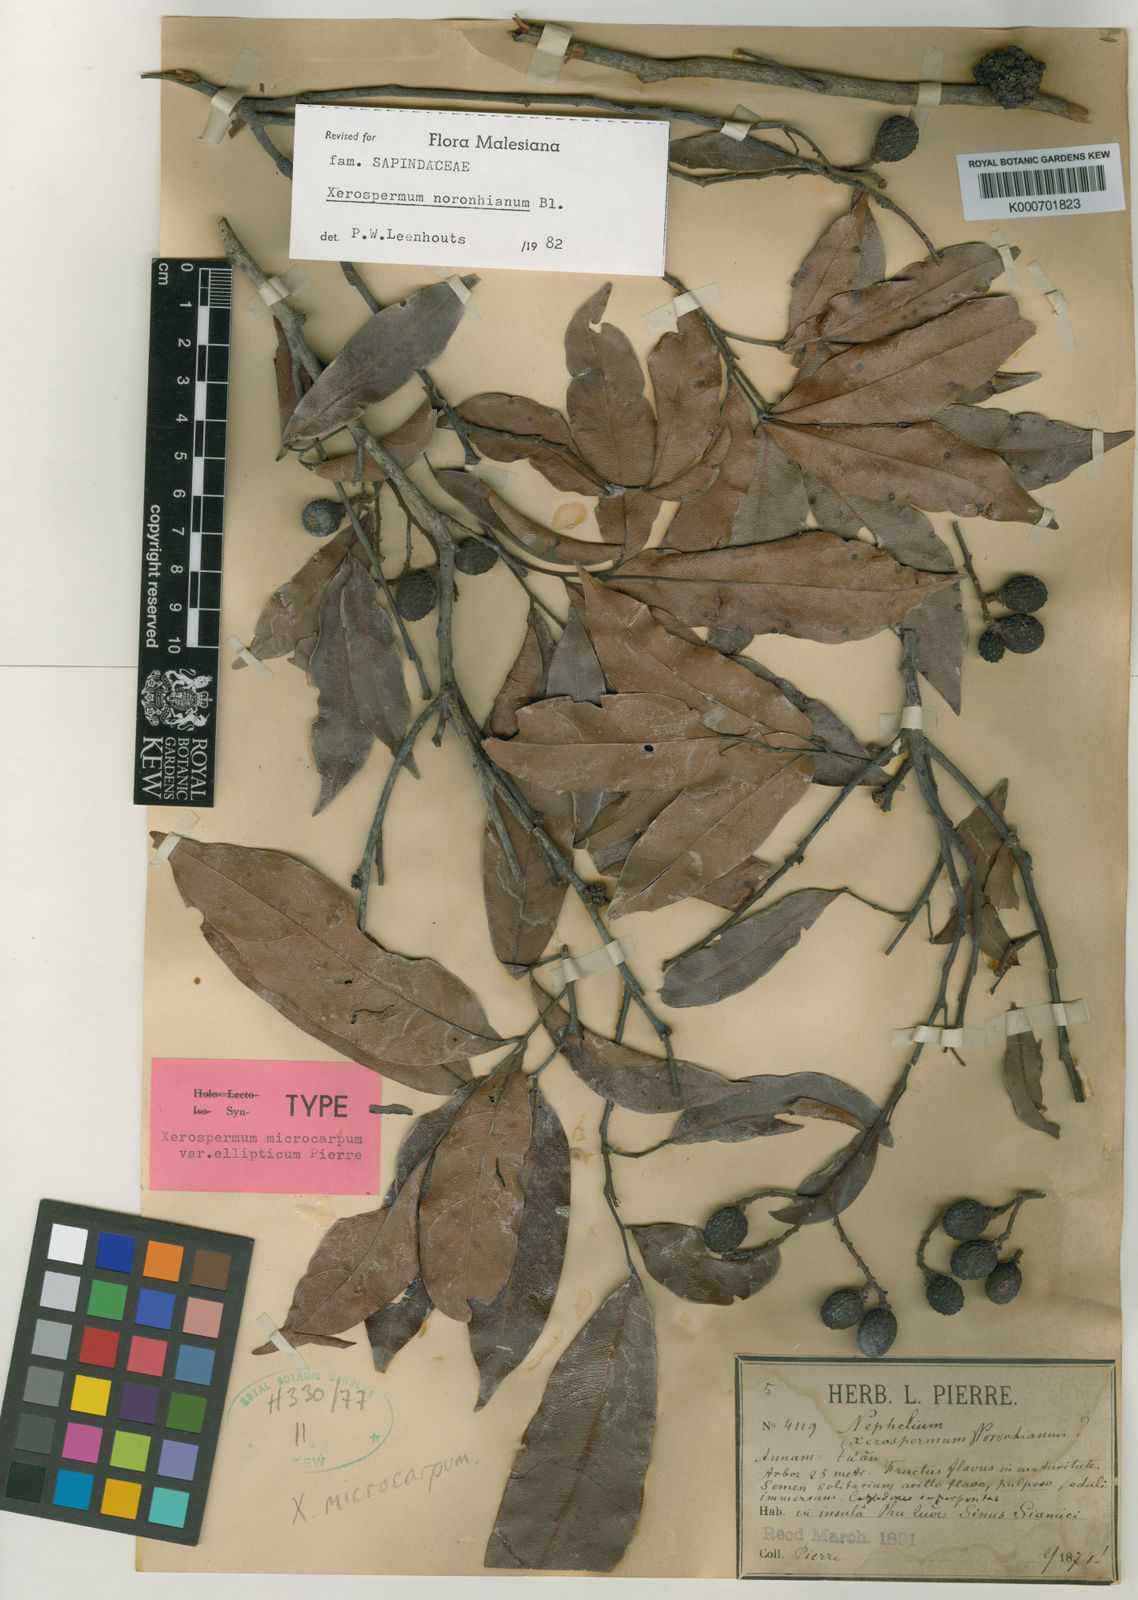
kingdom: Plantae
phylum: Tracheophyta
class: Magnoliopsida
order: Sapindales
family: Sapindaceae
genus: Xerospermum
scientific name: Xerospermum noronhianum
